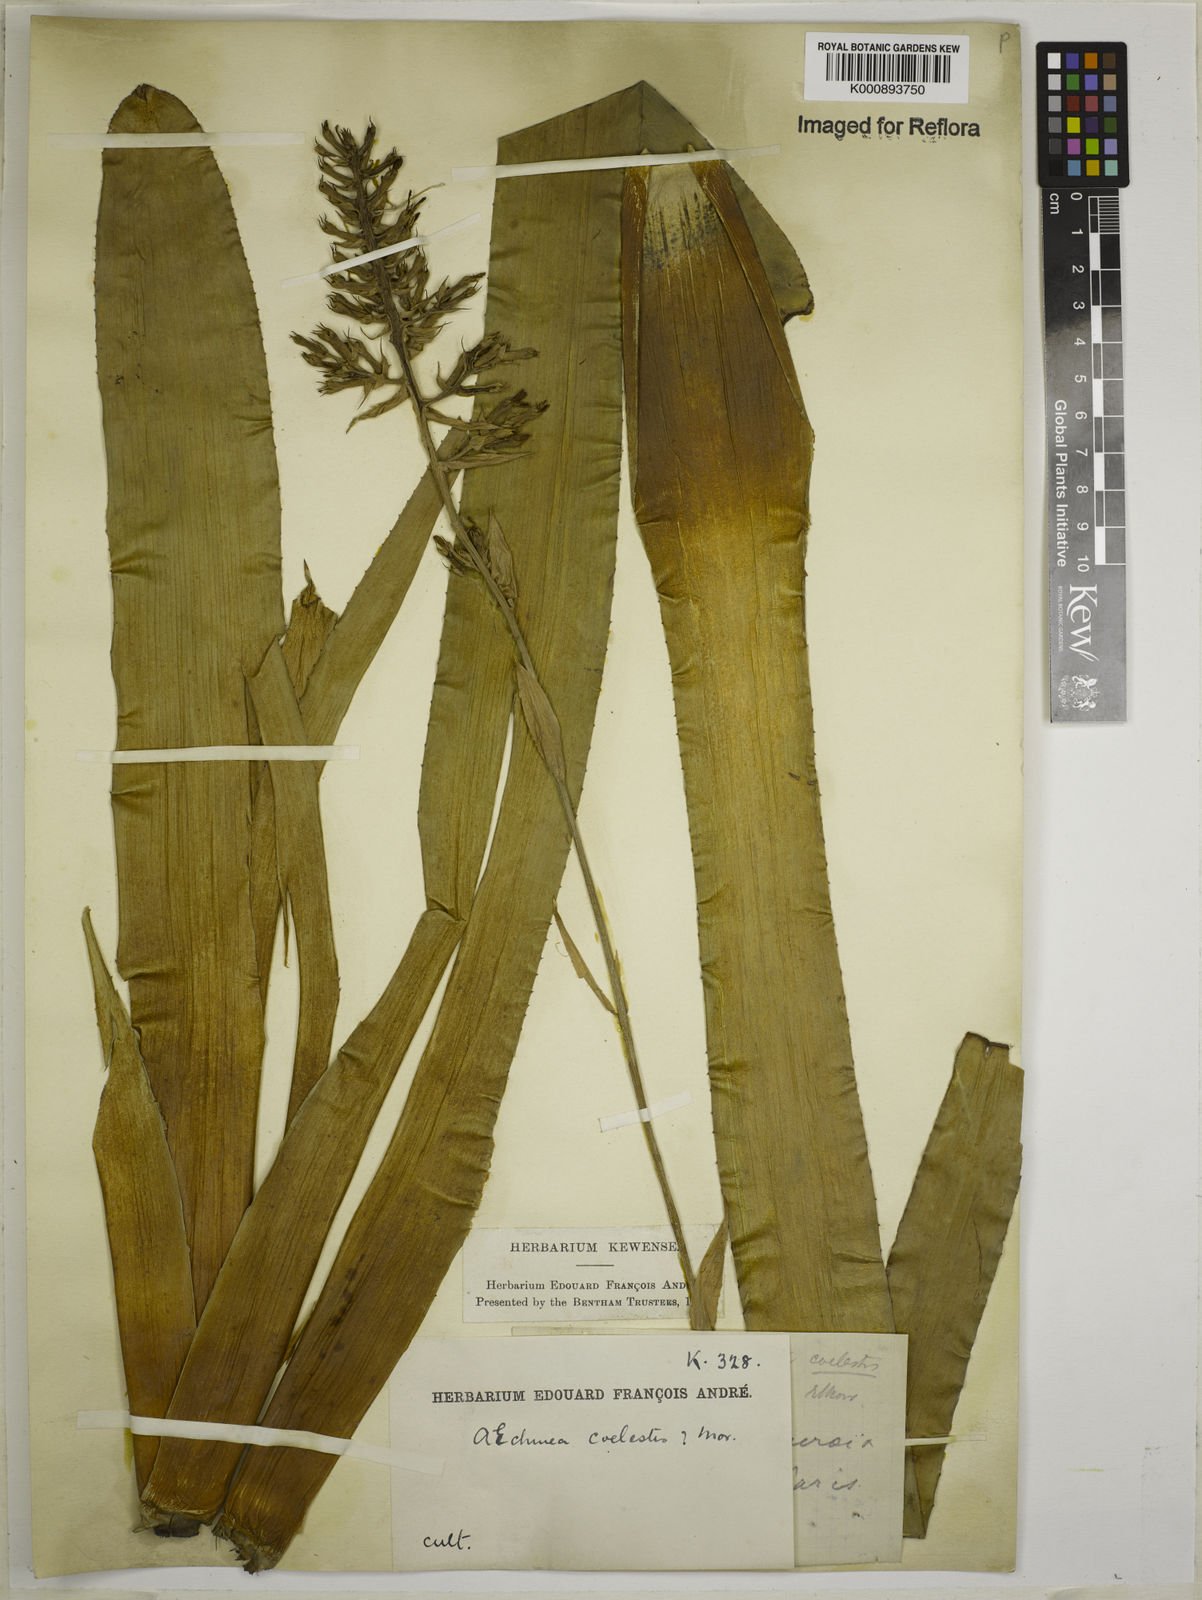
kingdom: Plantae
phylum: Tracheophyta
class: Liliopsida
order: Poales
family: Bromeliaceae
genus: Aechmea
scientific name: Aechmea coelestis
